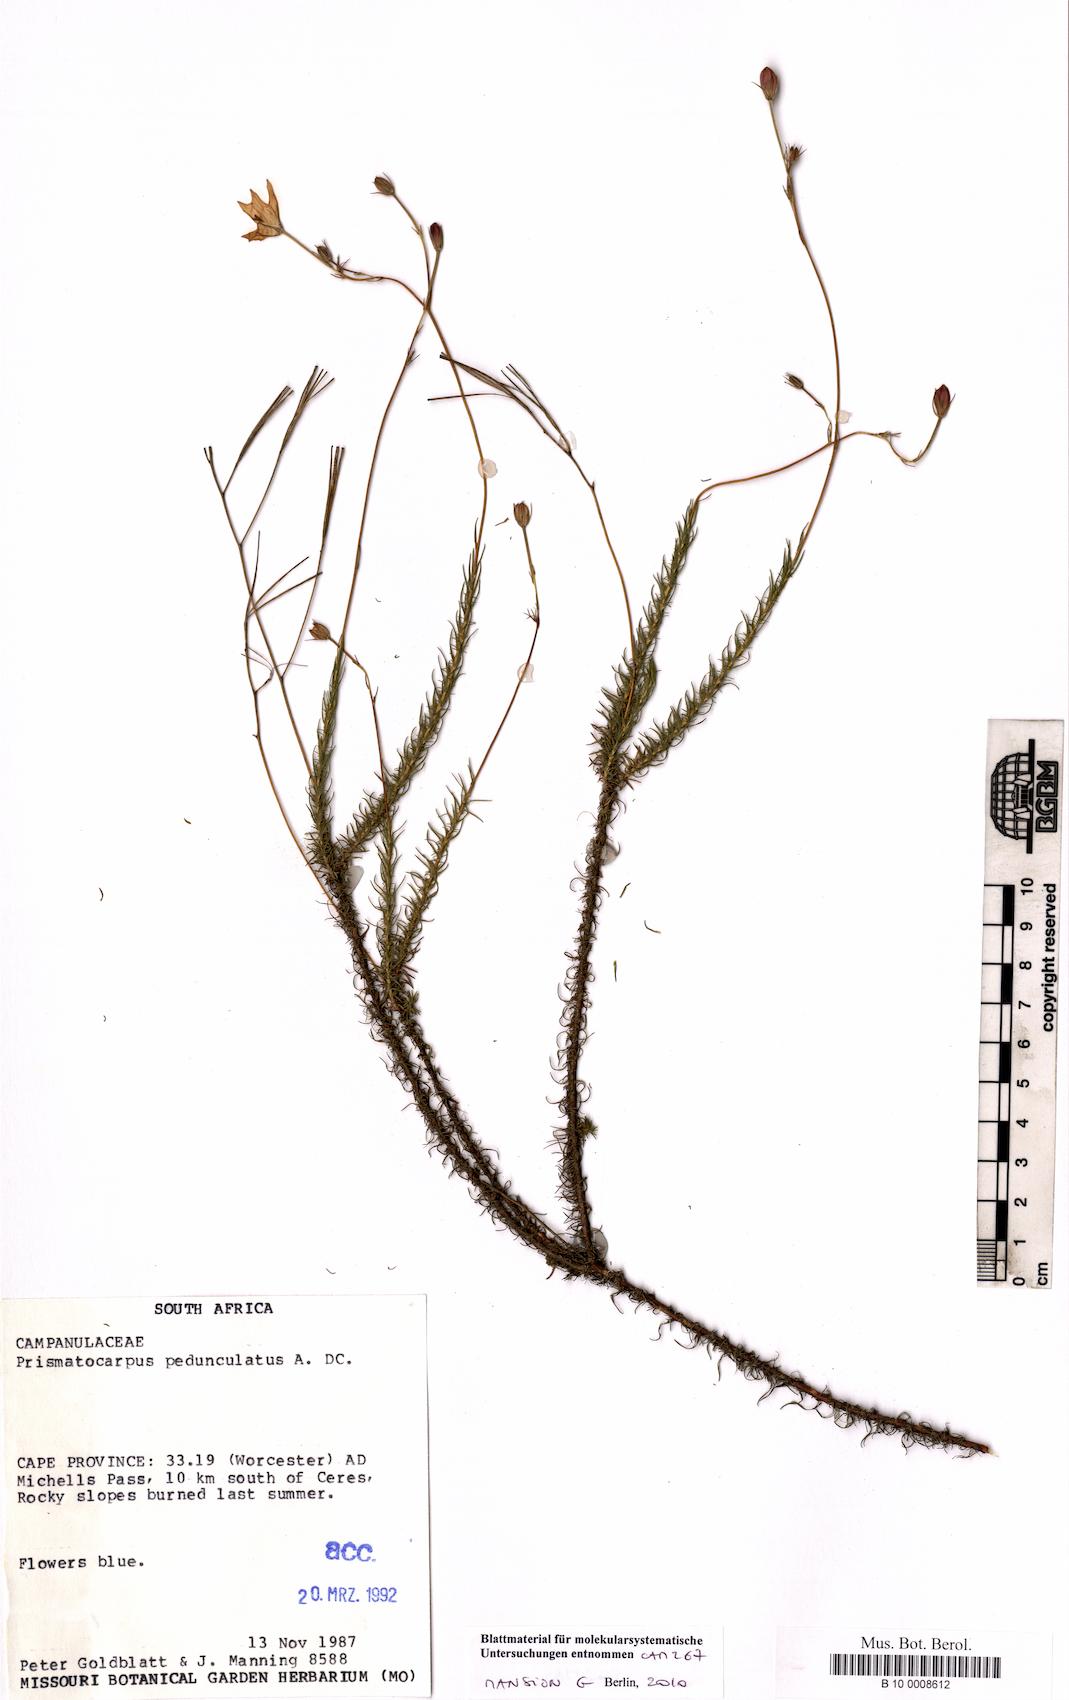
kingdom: Plantae
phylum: Tracheophyta
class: Magnoliopsida
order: Asterales
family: Campanulaceae
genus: Prismatocarpus
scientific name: Prismatocarpus pedunculatus
